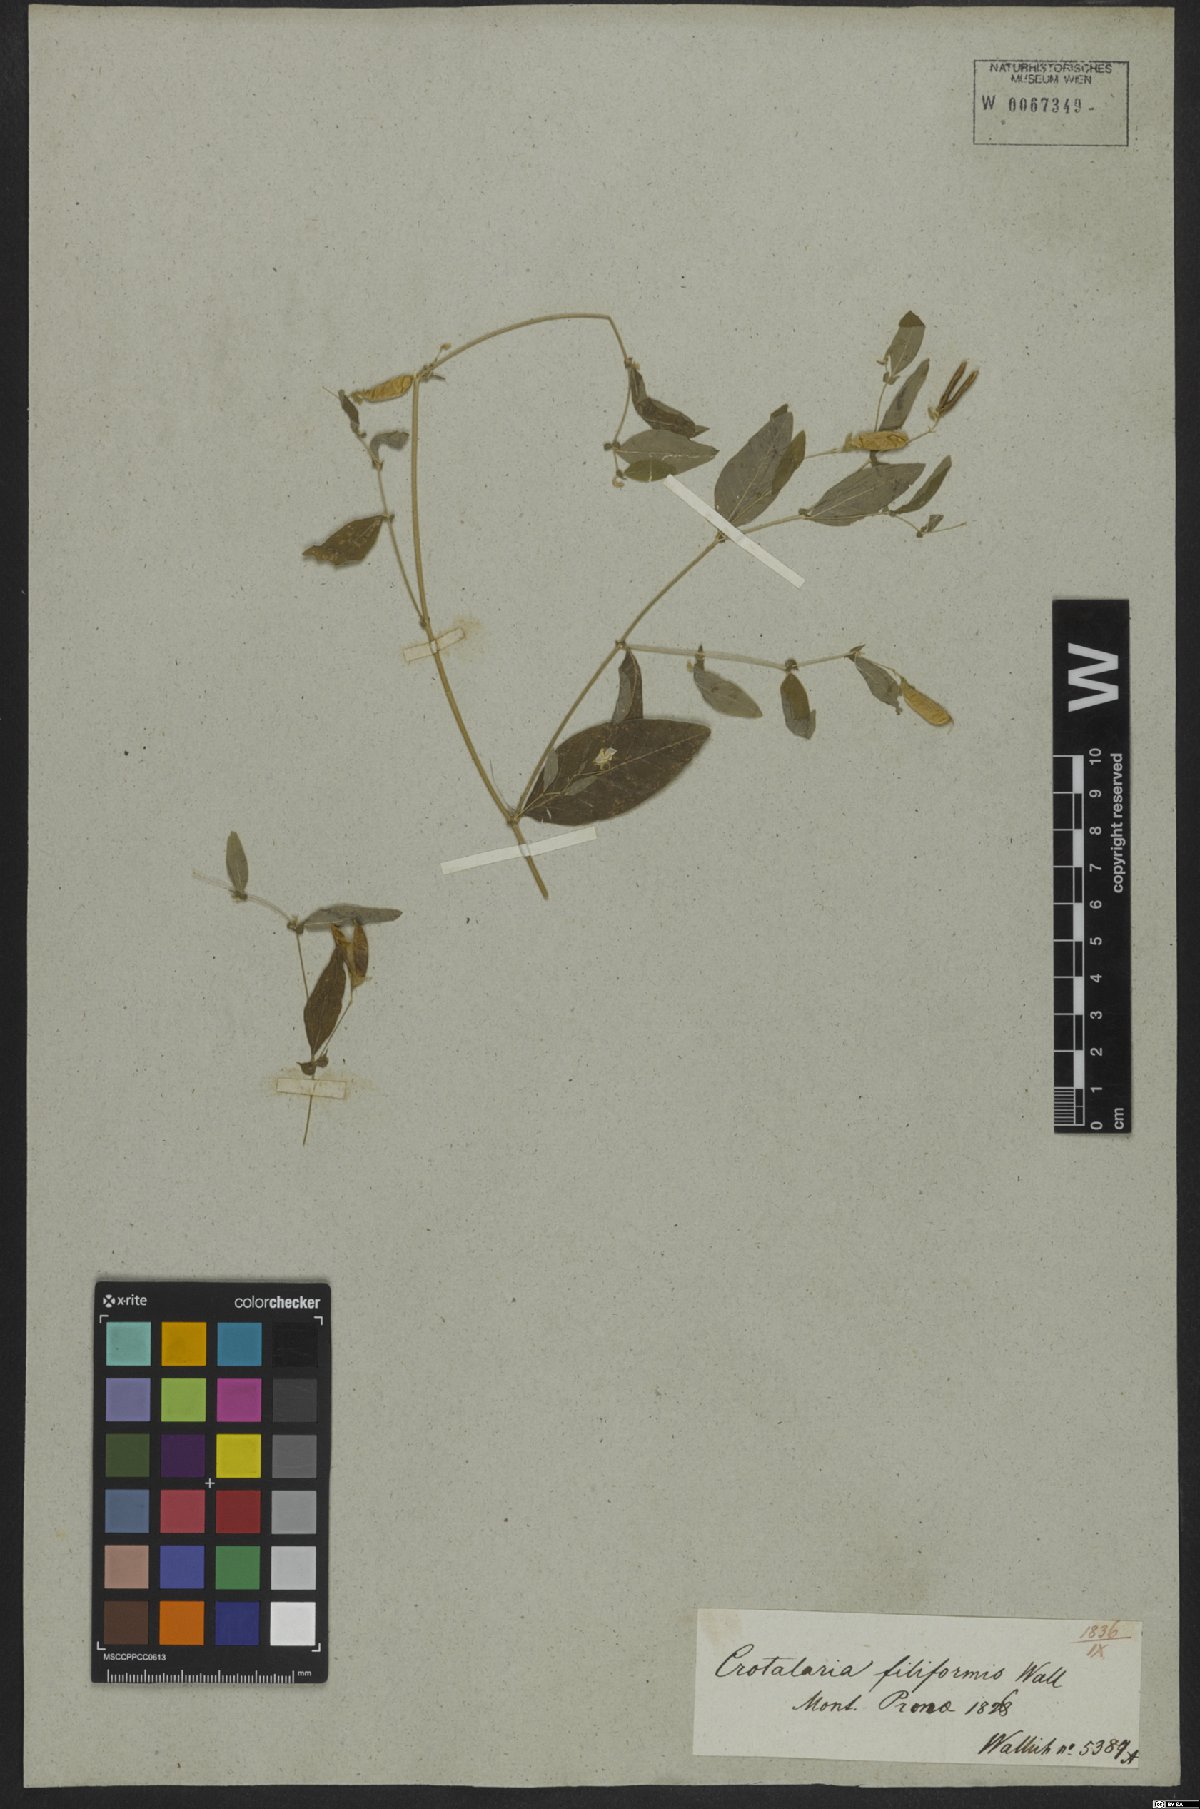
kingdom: Plantae
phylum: Tracheophyta
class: Magnoliopsida
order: Fabales
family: Fabaceae
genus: Crotalaria
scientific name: Crotalaria filiformis
